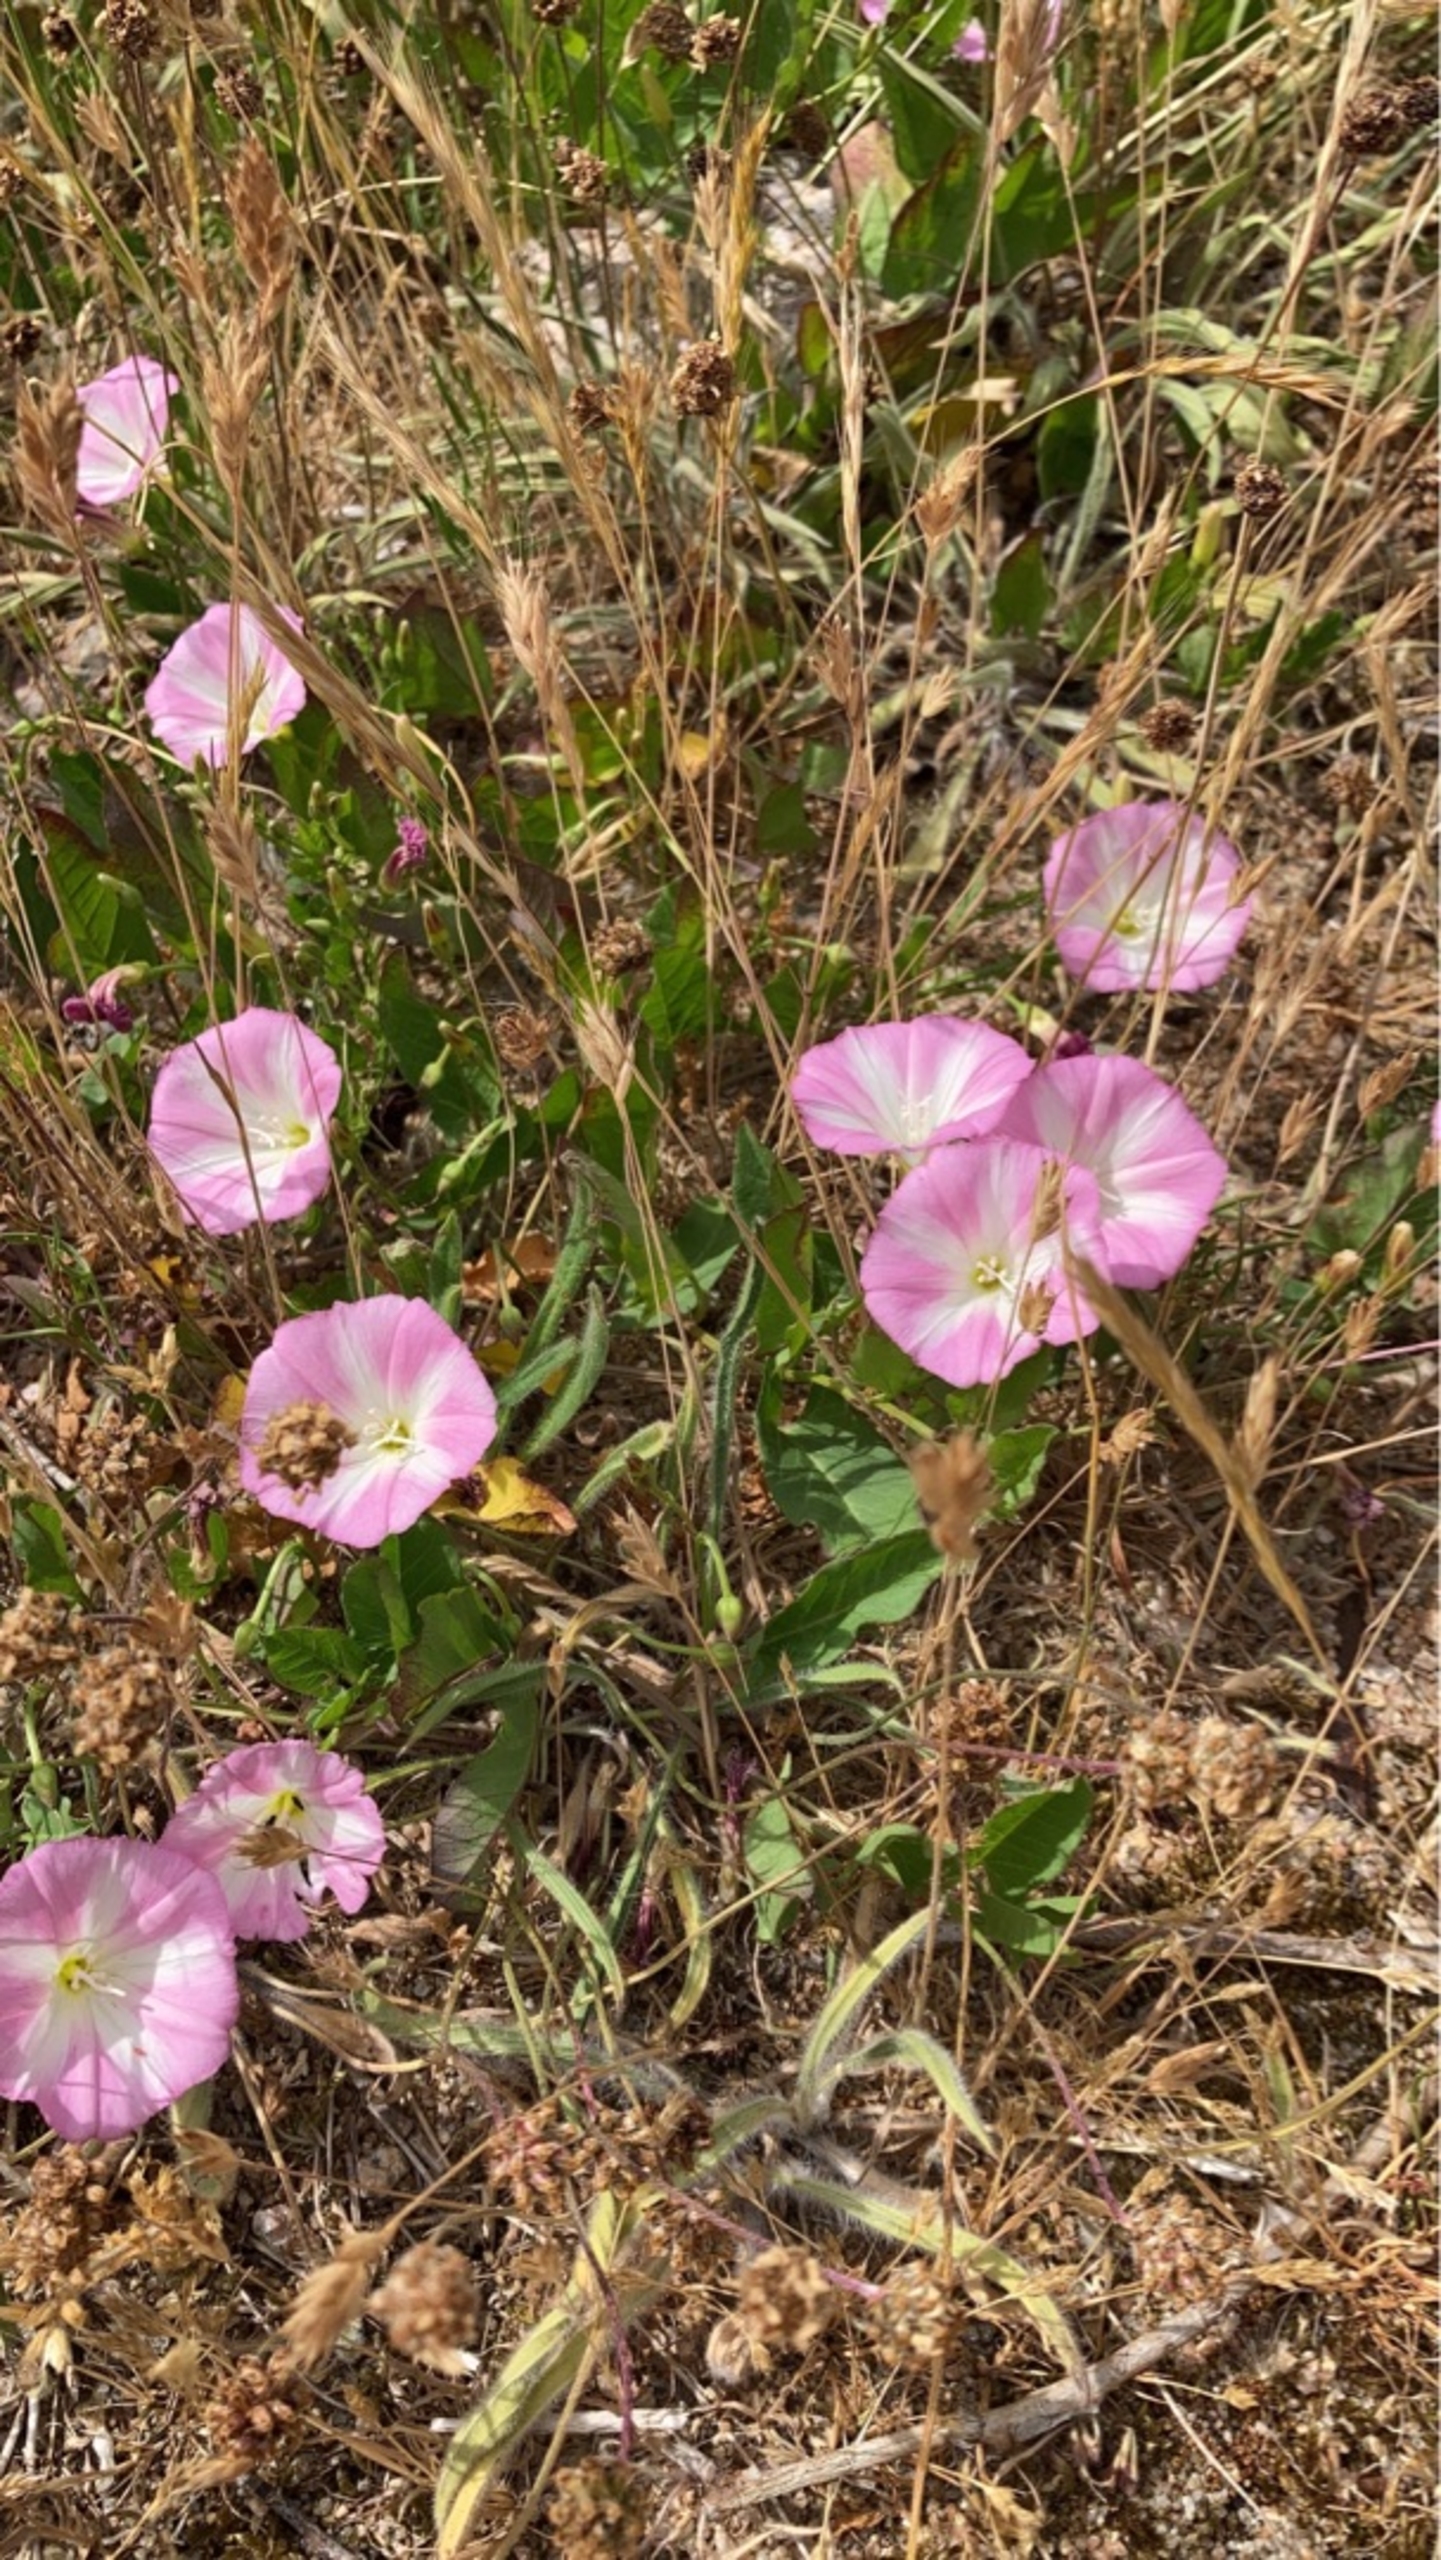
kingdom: Plantae
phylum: Tracheophyta
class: Magnoliopsida
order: Solanales
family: Convolvulaceae
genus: Convolvulus
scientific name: Convolvulus arvensis
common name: Ager-snerle
